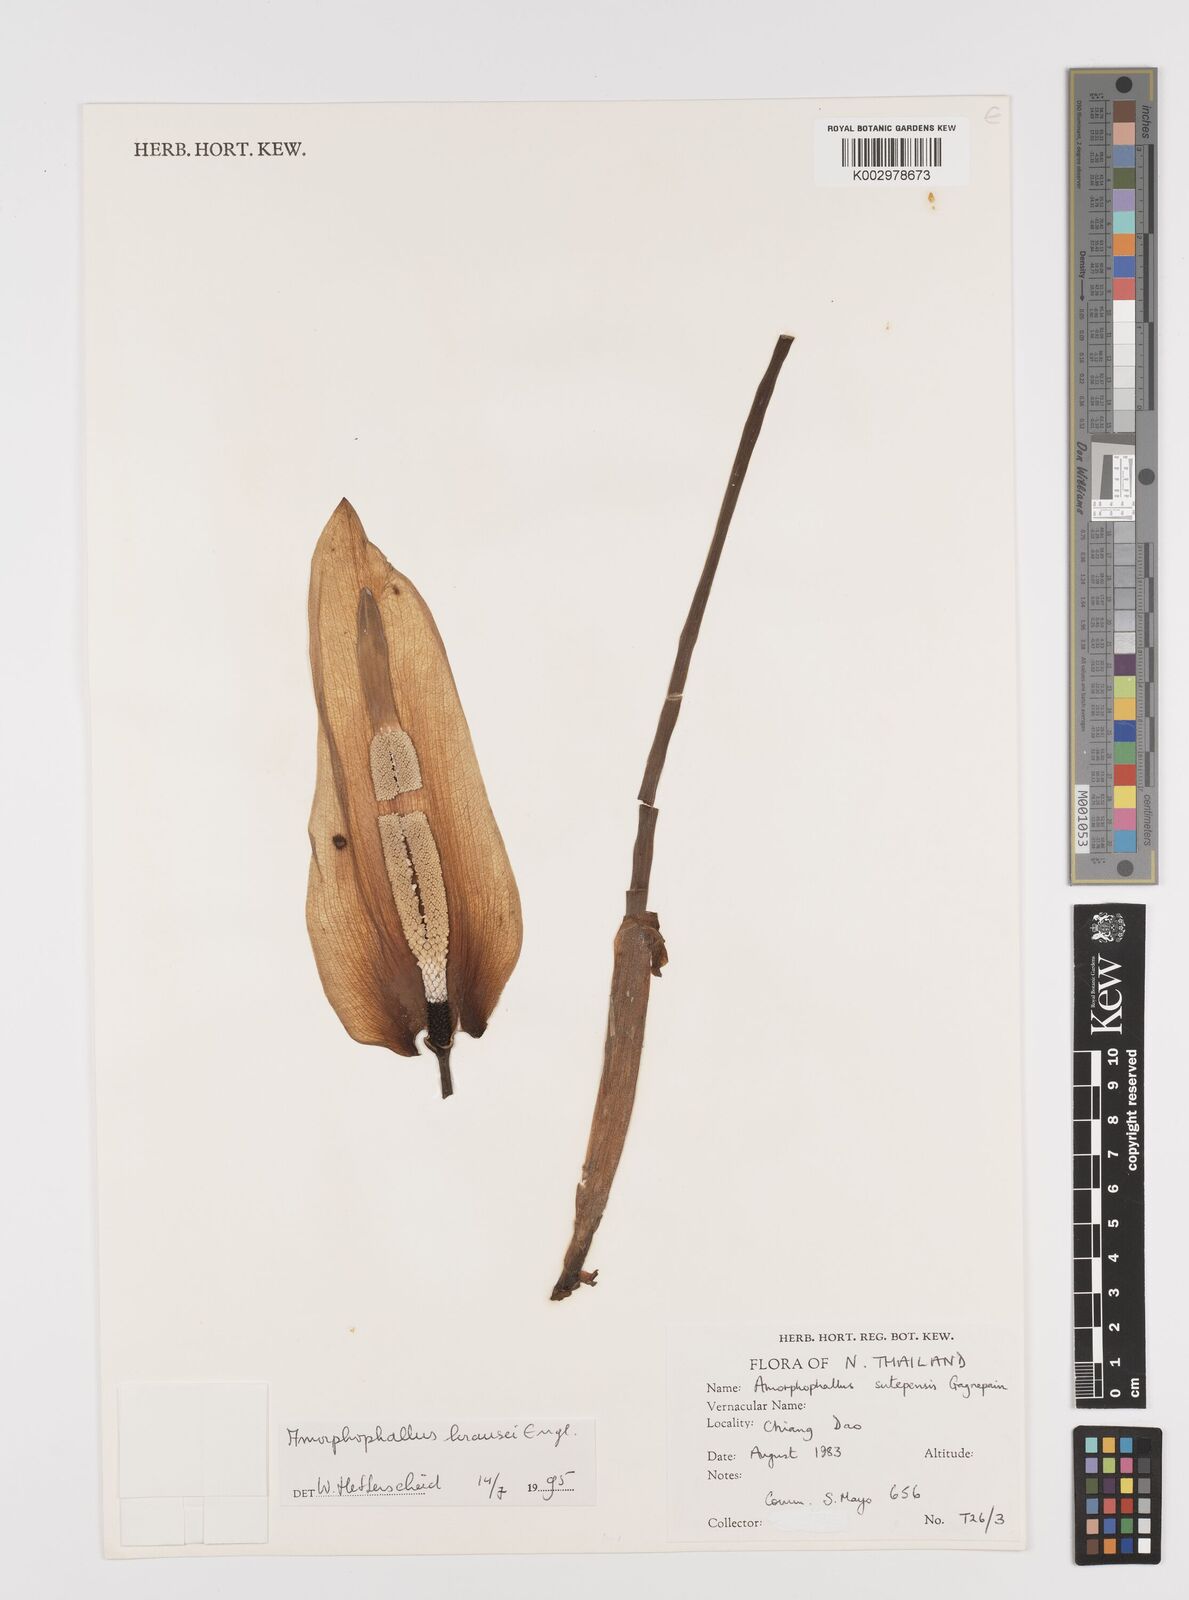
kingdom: Plantae
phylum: Tracheophyta
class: Liliopsida
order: Alismatales
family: Araceae
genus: Amorphophallus
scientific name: Amorphophallus krausei
